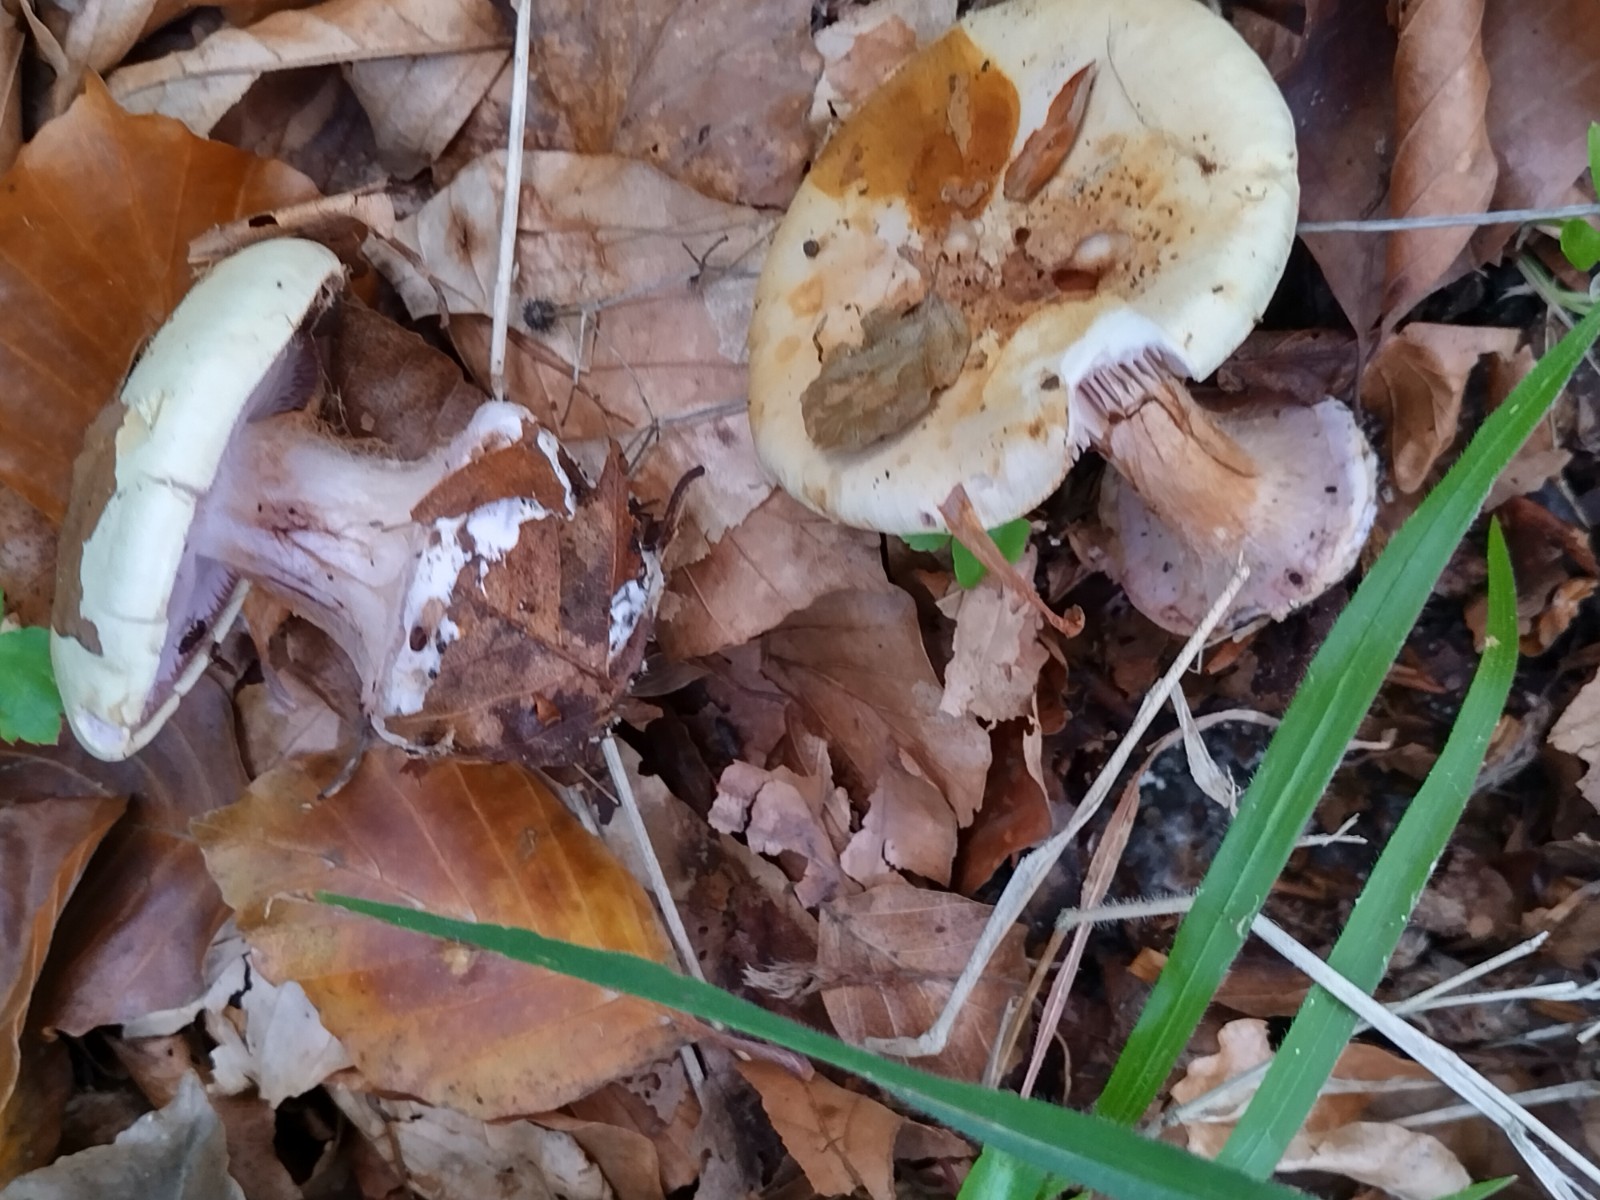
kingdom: Fungi
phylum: Basidiomycota
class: Agaricomycetes
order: Agaricales
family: Cortinariaceae
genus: Cortinarius
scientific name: Cortinarius anserinus
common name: bøge-slørhat
